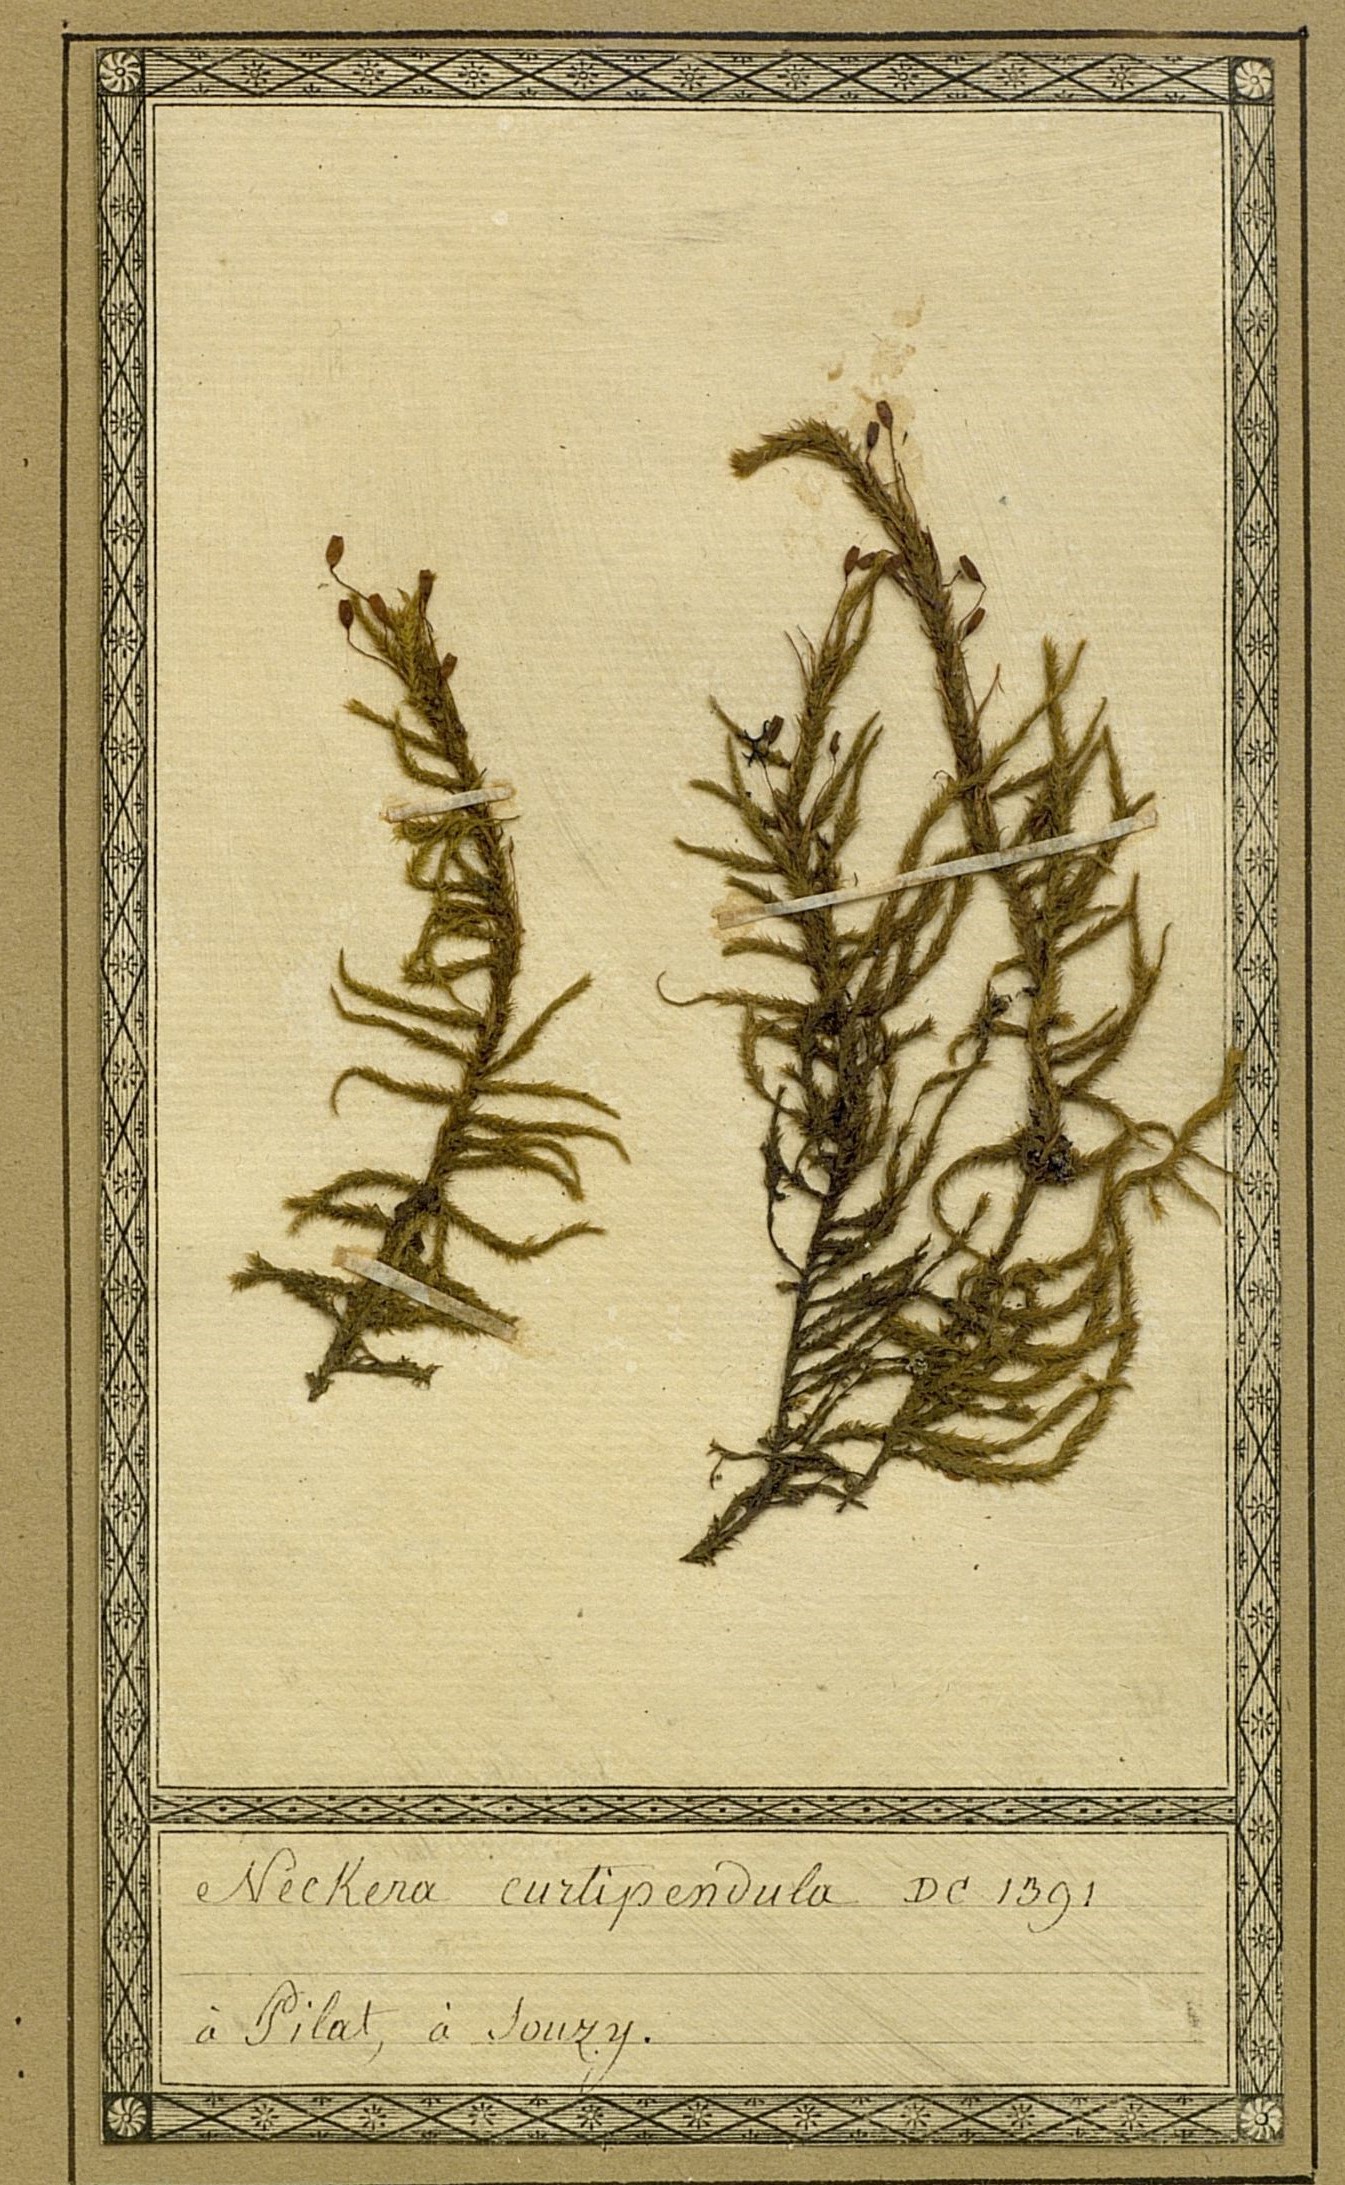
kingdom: Plantae
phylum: Bryophyta
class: Bryopsida
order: Hypnales
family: Antitrichiaceae
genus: Antitrichia
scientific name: Antitrichia curtipendula
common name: Pendulous wing-moss
